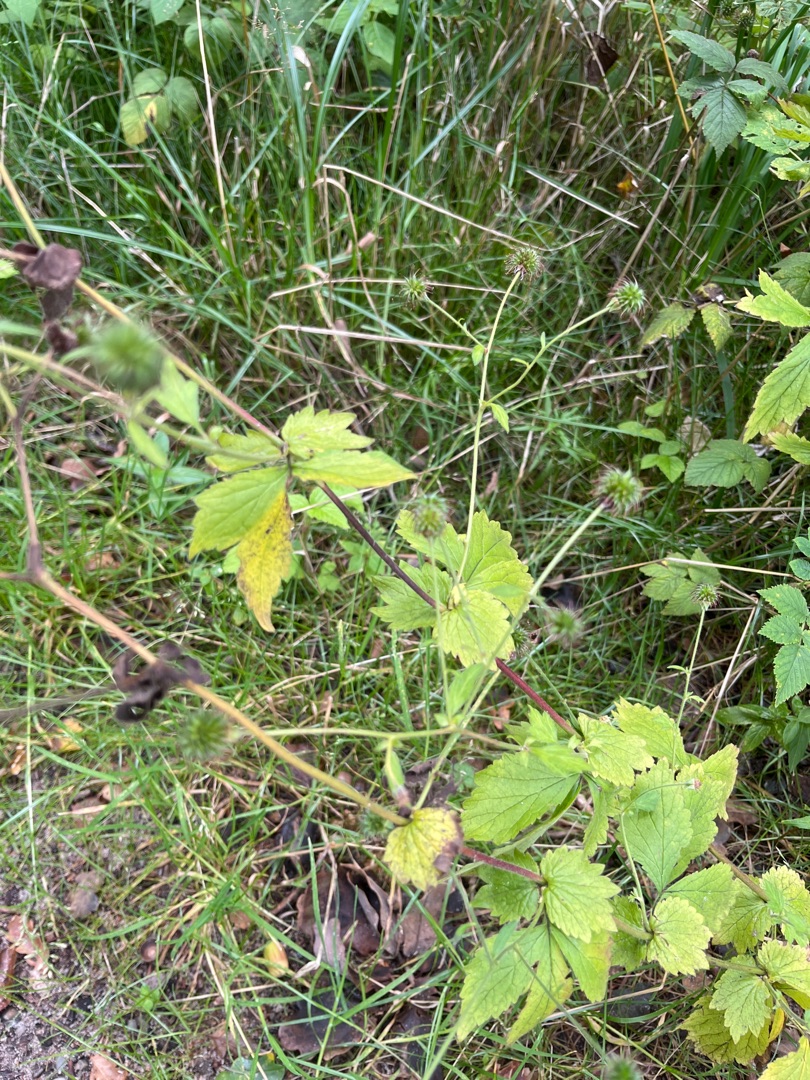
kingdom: Plantae
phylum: Tracheophyta
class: Magnoliopsida
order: Rosales
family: Rosaceae
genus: Geum
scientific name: Geum urbanum
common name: Feber-nellikerod
